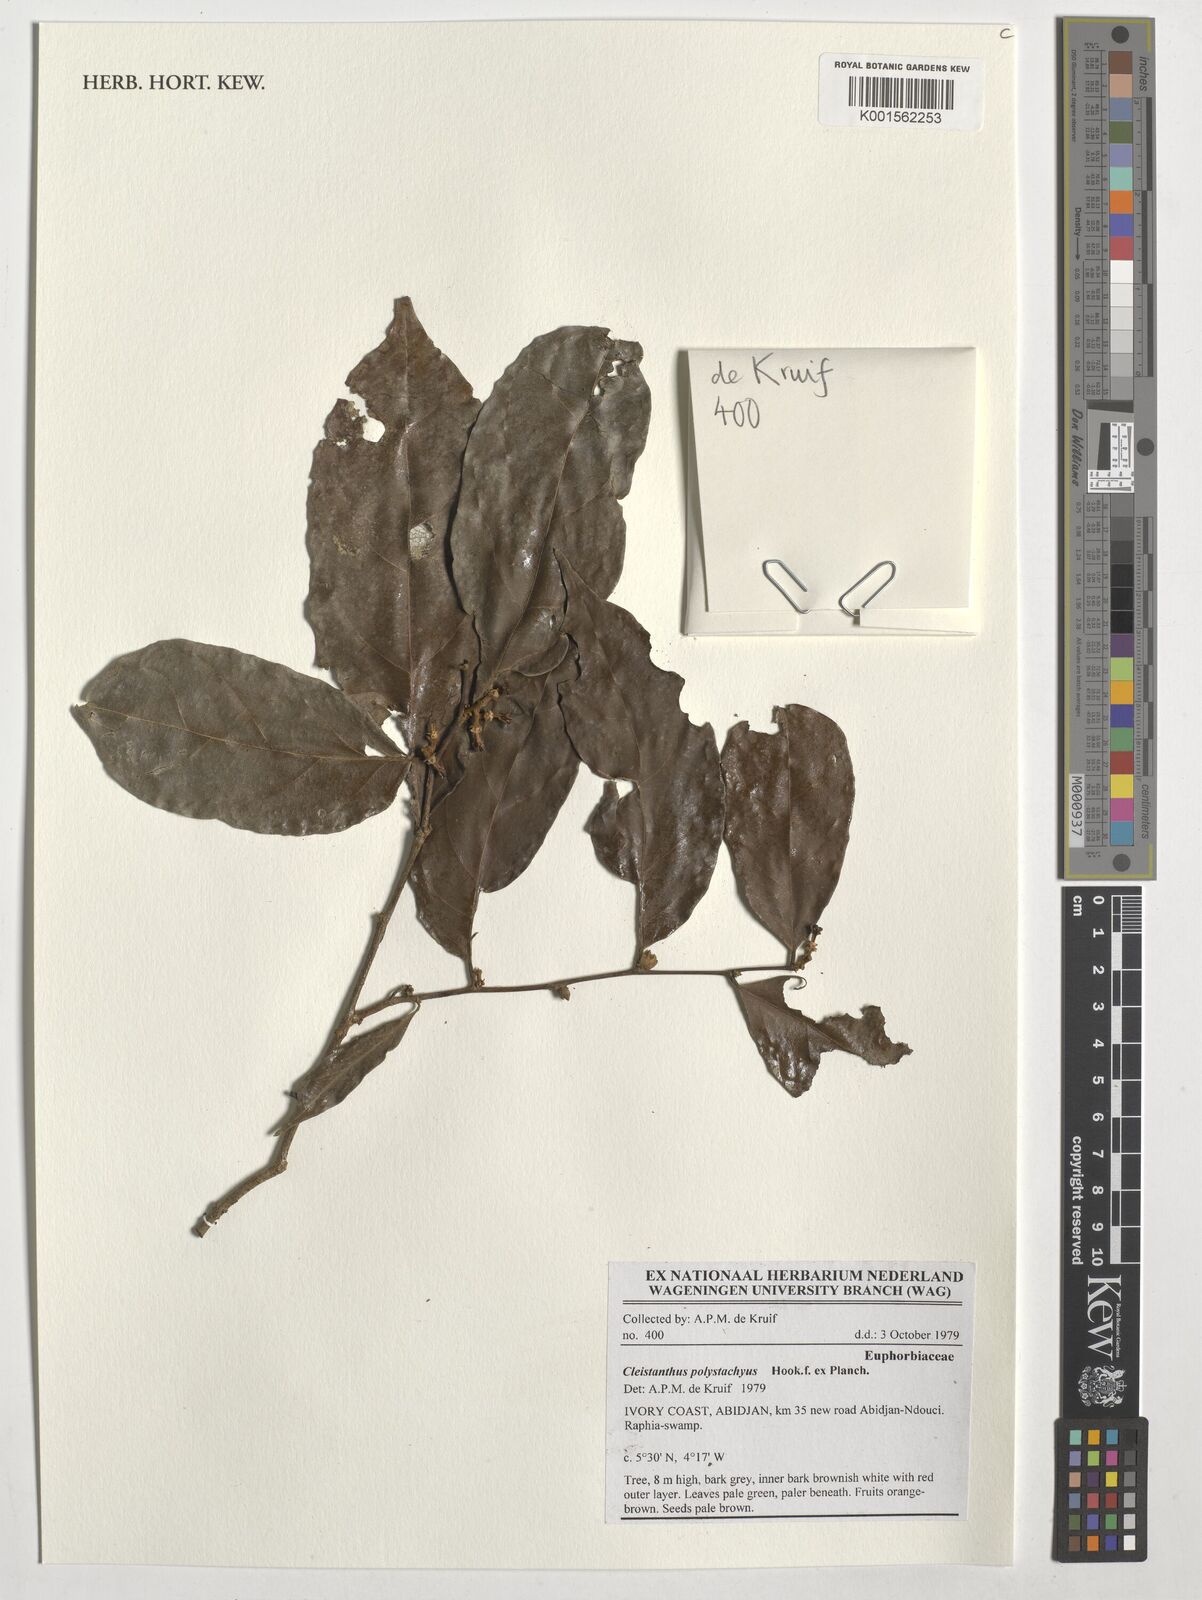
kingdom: Plantae
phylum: Tracheophyta
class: Magnoliopsida
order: Malpighiales
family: Phyllanthaceae
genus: Cleistanthus
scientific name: Cleistanthus polystachyus
